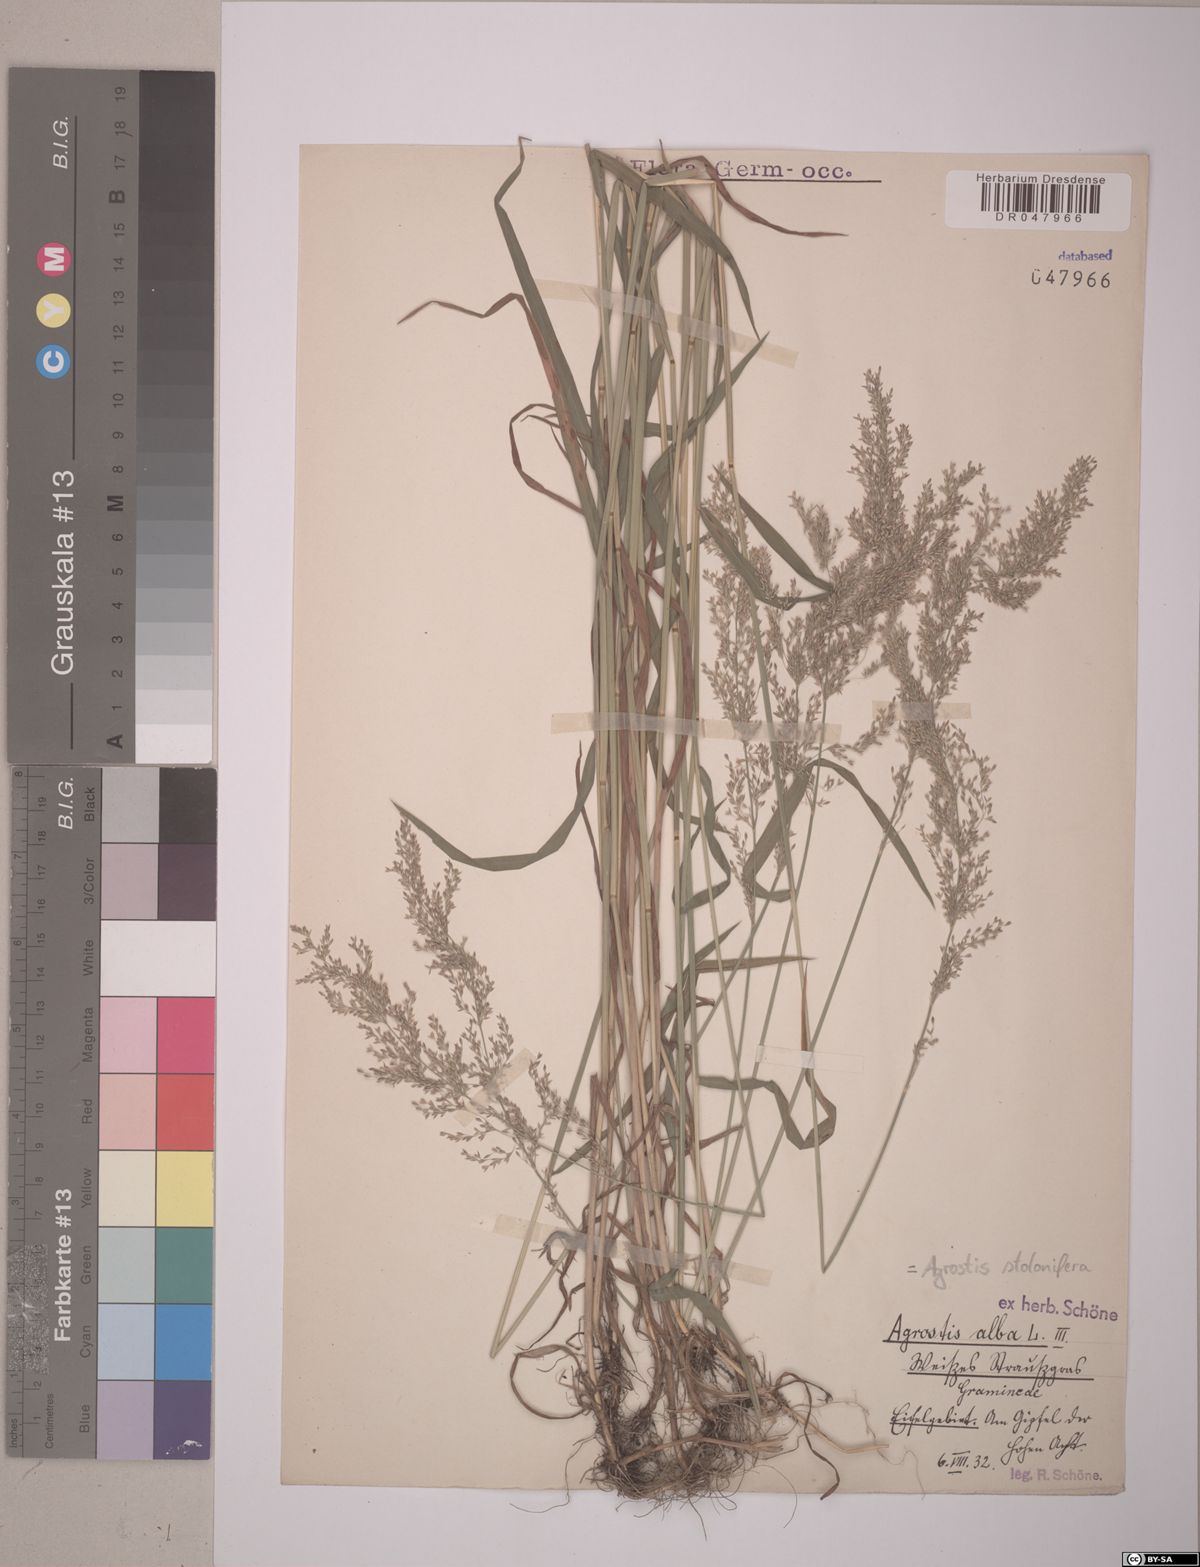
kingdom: Plantae
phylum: Tracheophyta
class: Liliopsida
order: Poales
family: Poaceae
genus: Agrostis
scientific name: Agrostis stolonifera
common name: Creeping bentgrass
